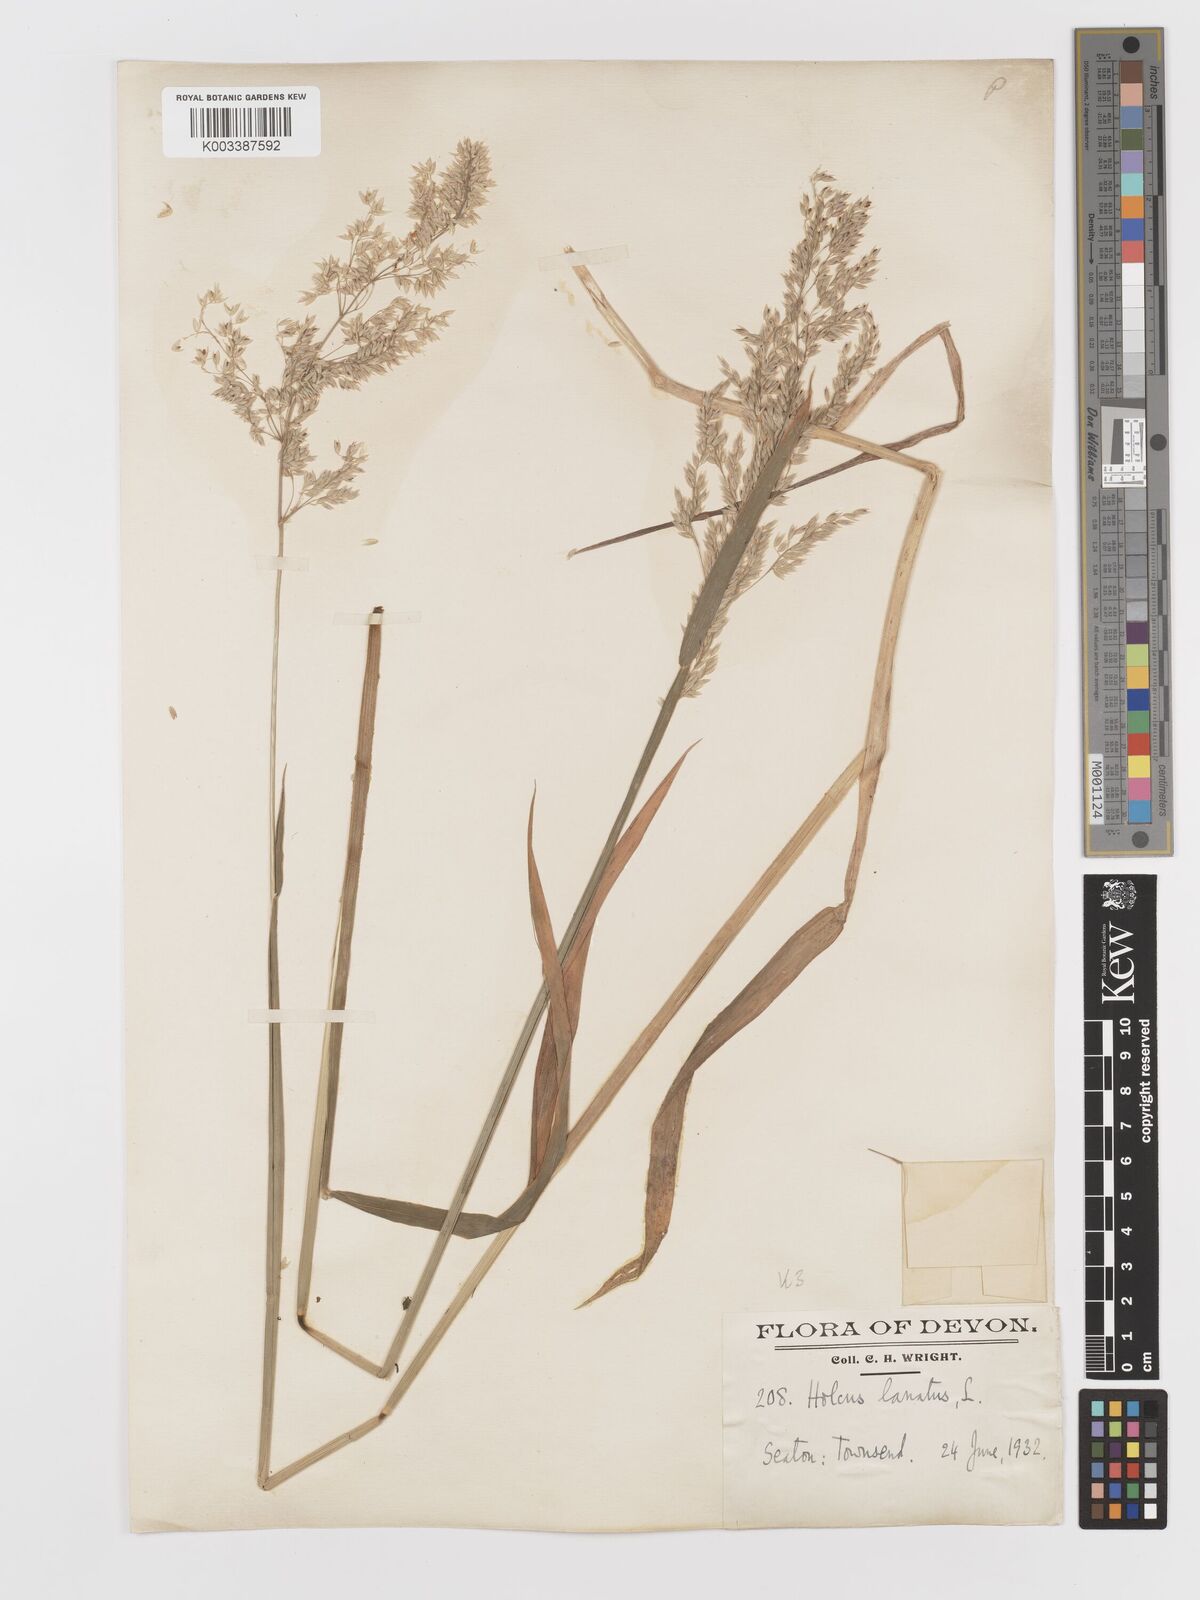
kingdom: Plantae
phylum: Tracheophyta
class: Liliopsida
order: Poales
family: Poaceae
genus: Holcus
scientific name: Holcus lanatus
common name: Yorkshire-fog
